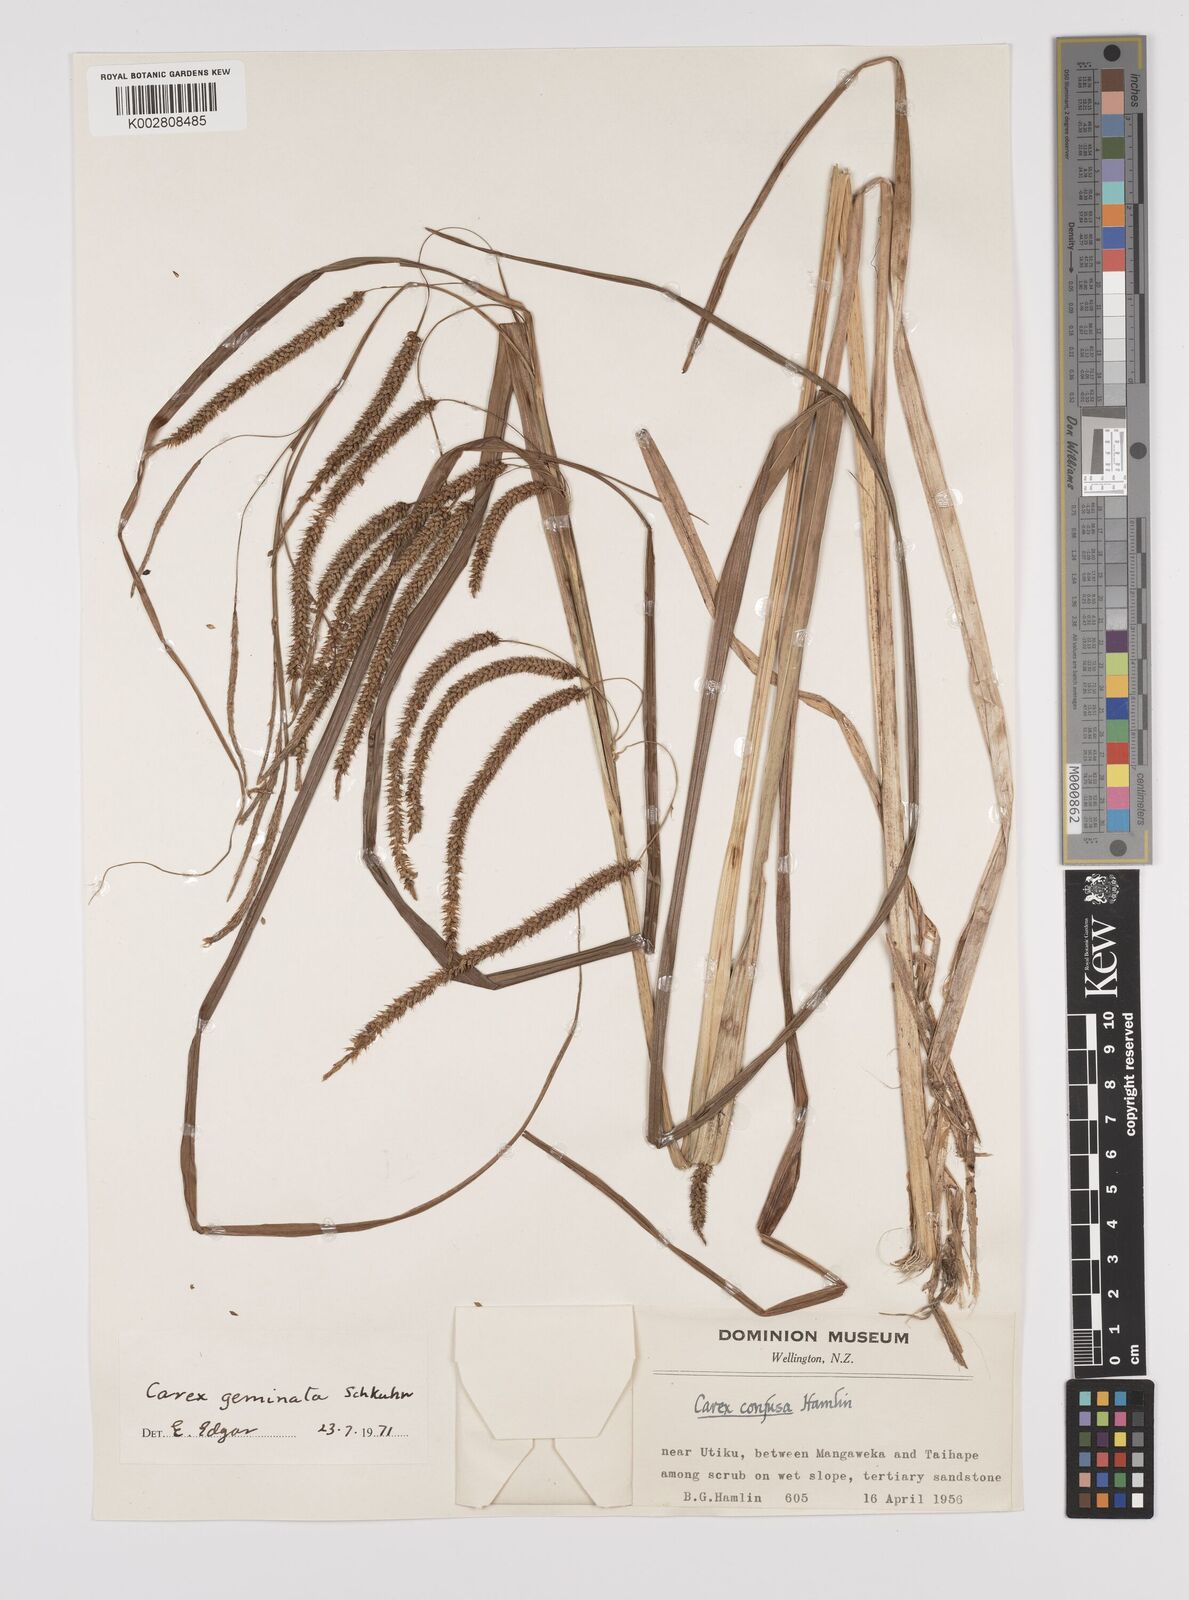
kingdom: Plantae
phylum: Tracheophyta
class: Liliopsida
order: Poales
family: Cyperaceae
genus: Carex
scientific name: Carex geminata
